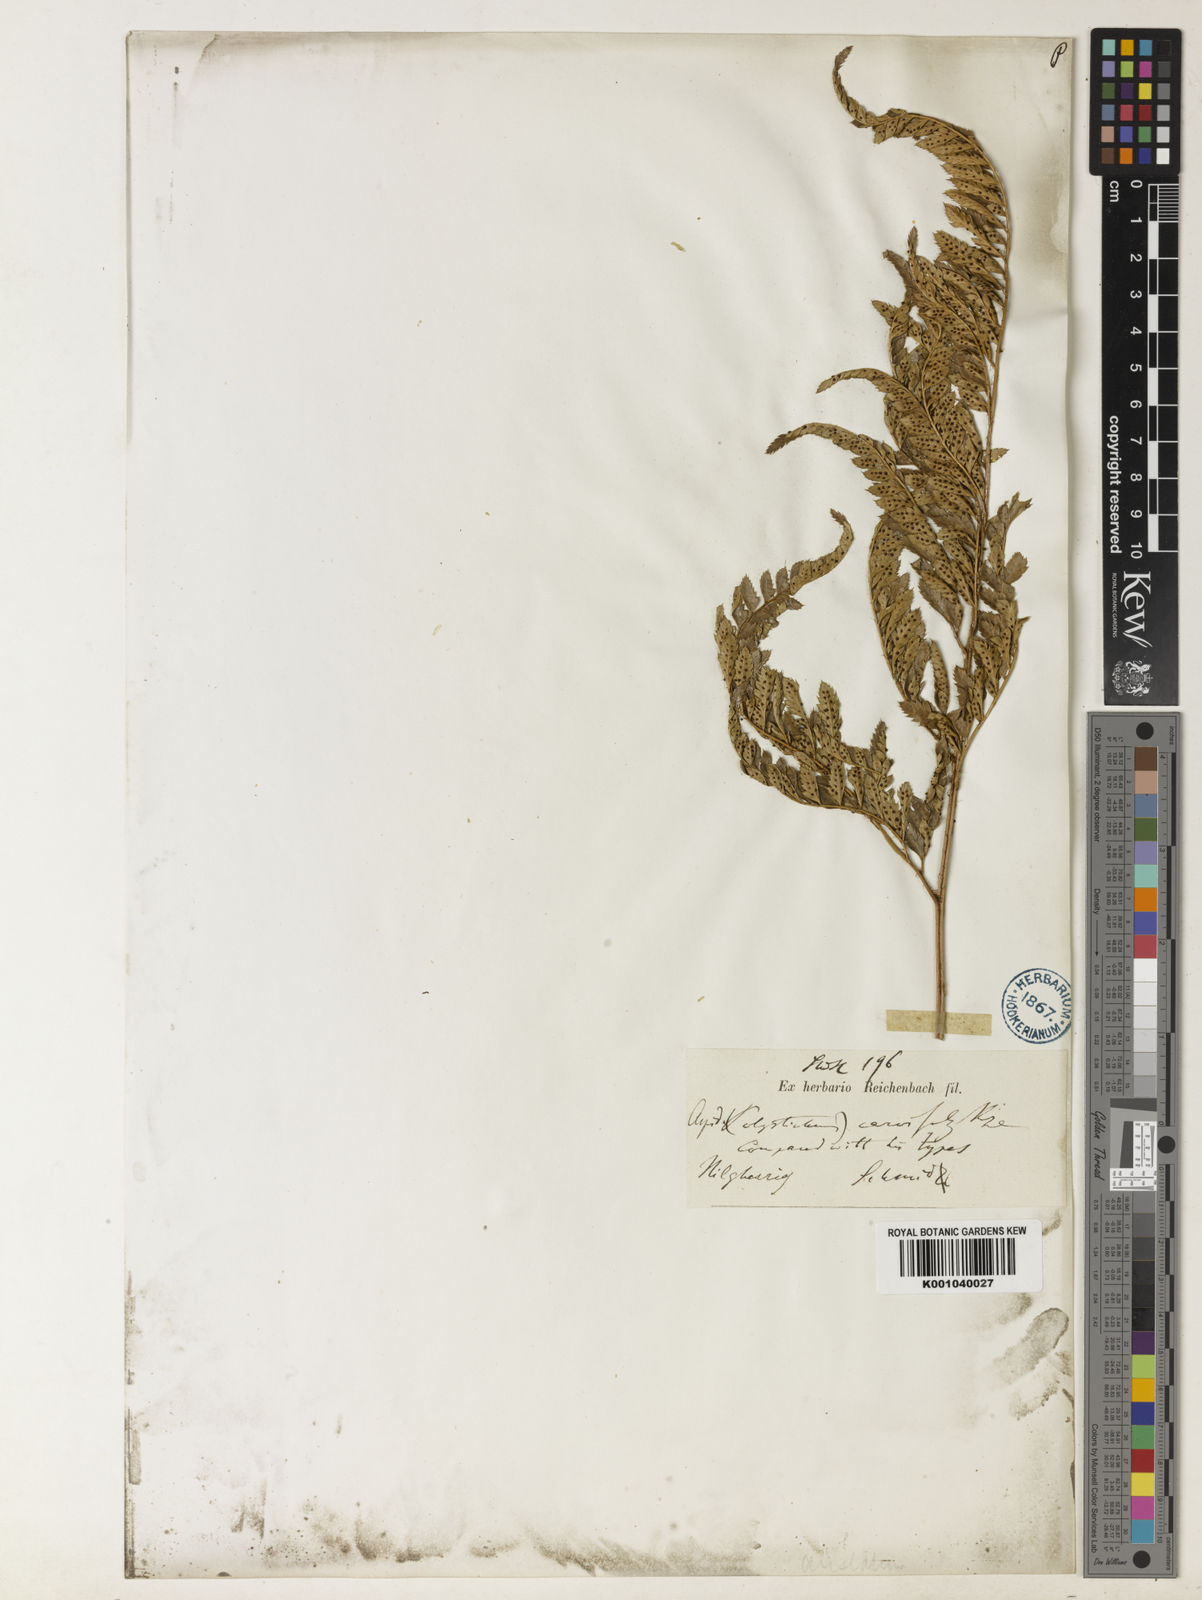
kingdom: Plantae
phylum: Tracheophyta
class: Polypodiopsida
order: Polypodiales
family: Dryopteridaceae
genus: Arachniodes
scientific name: Arachniodes aristata
